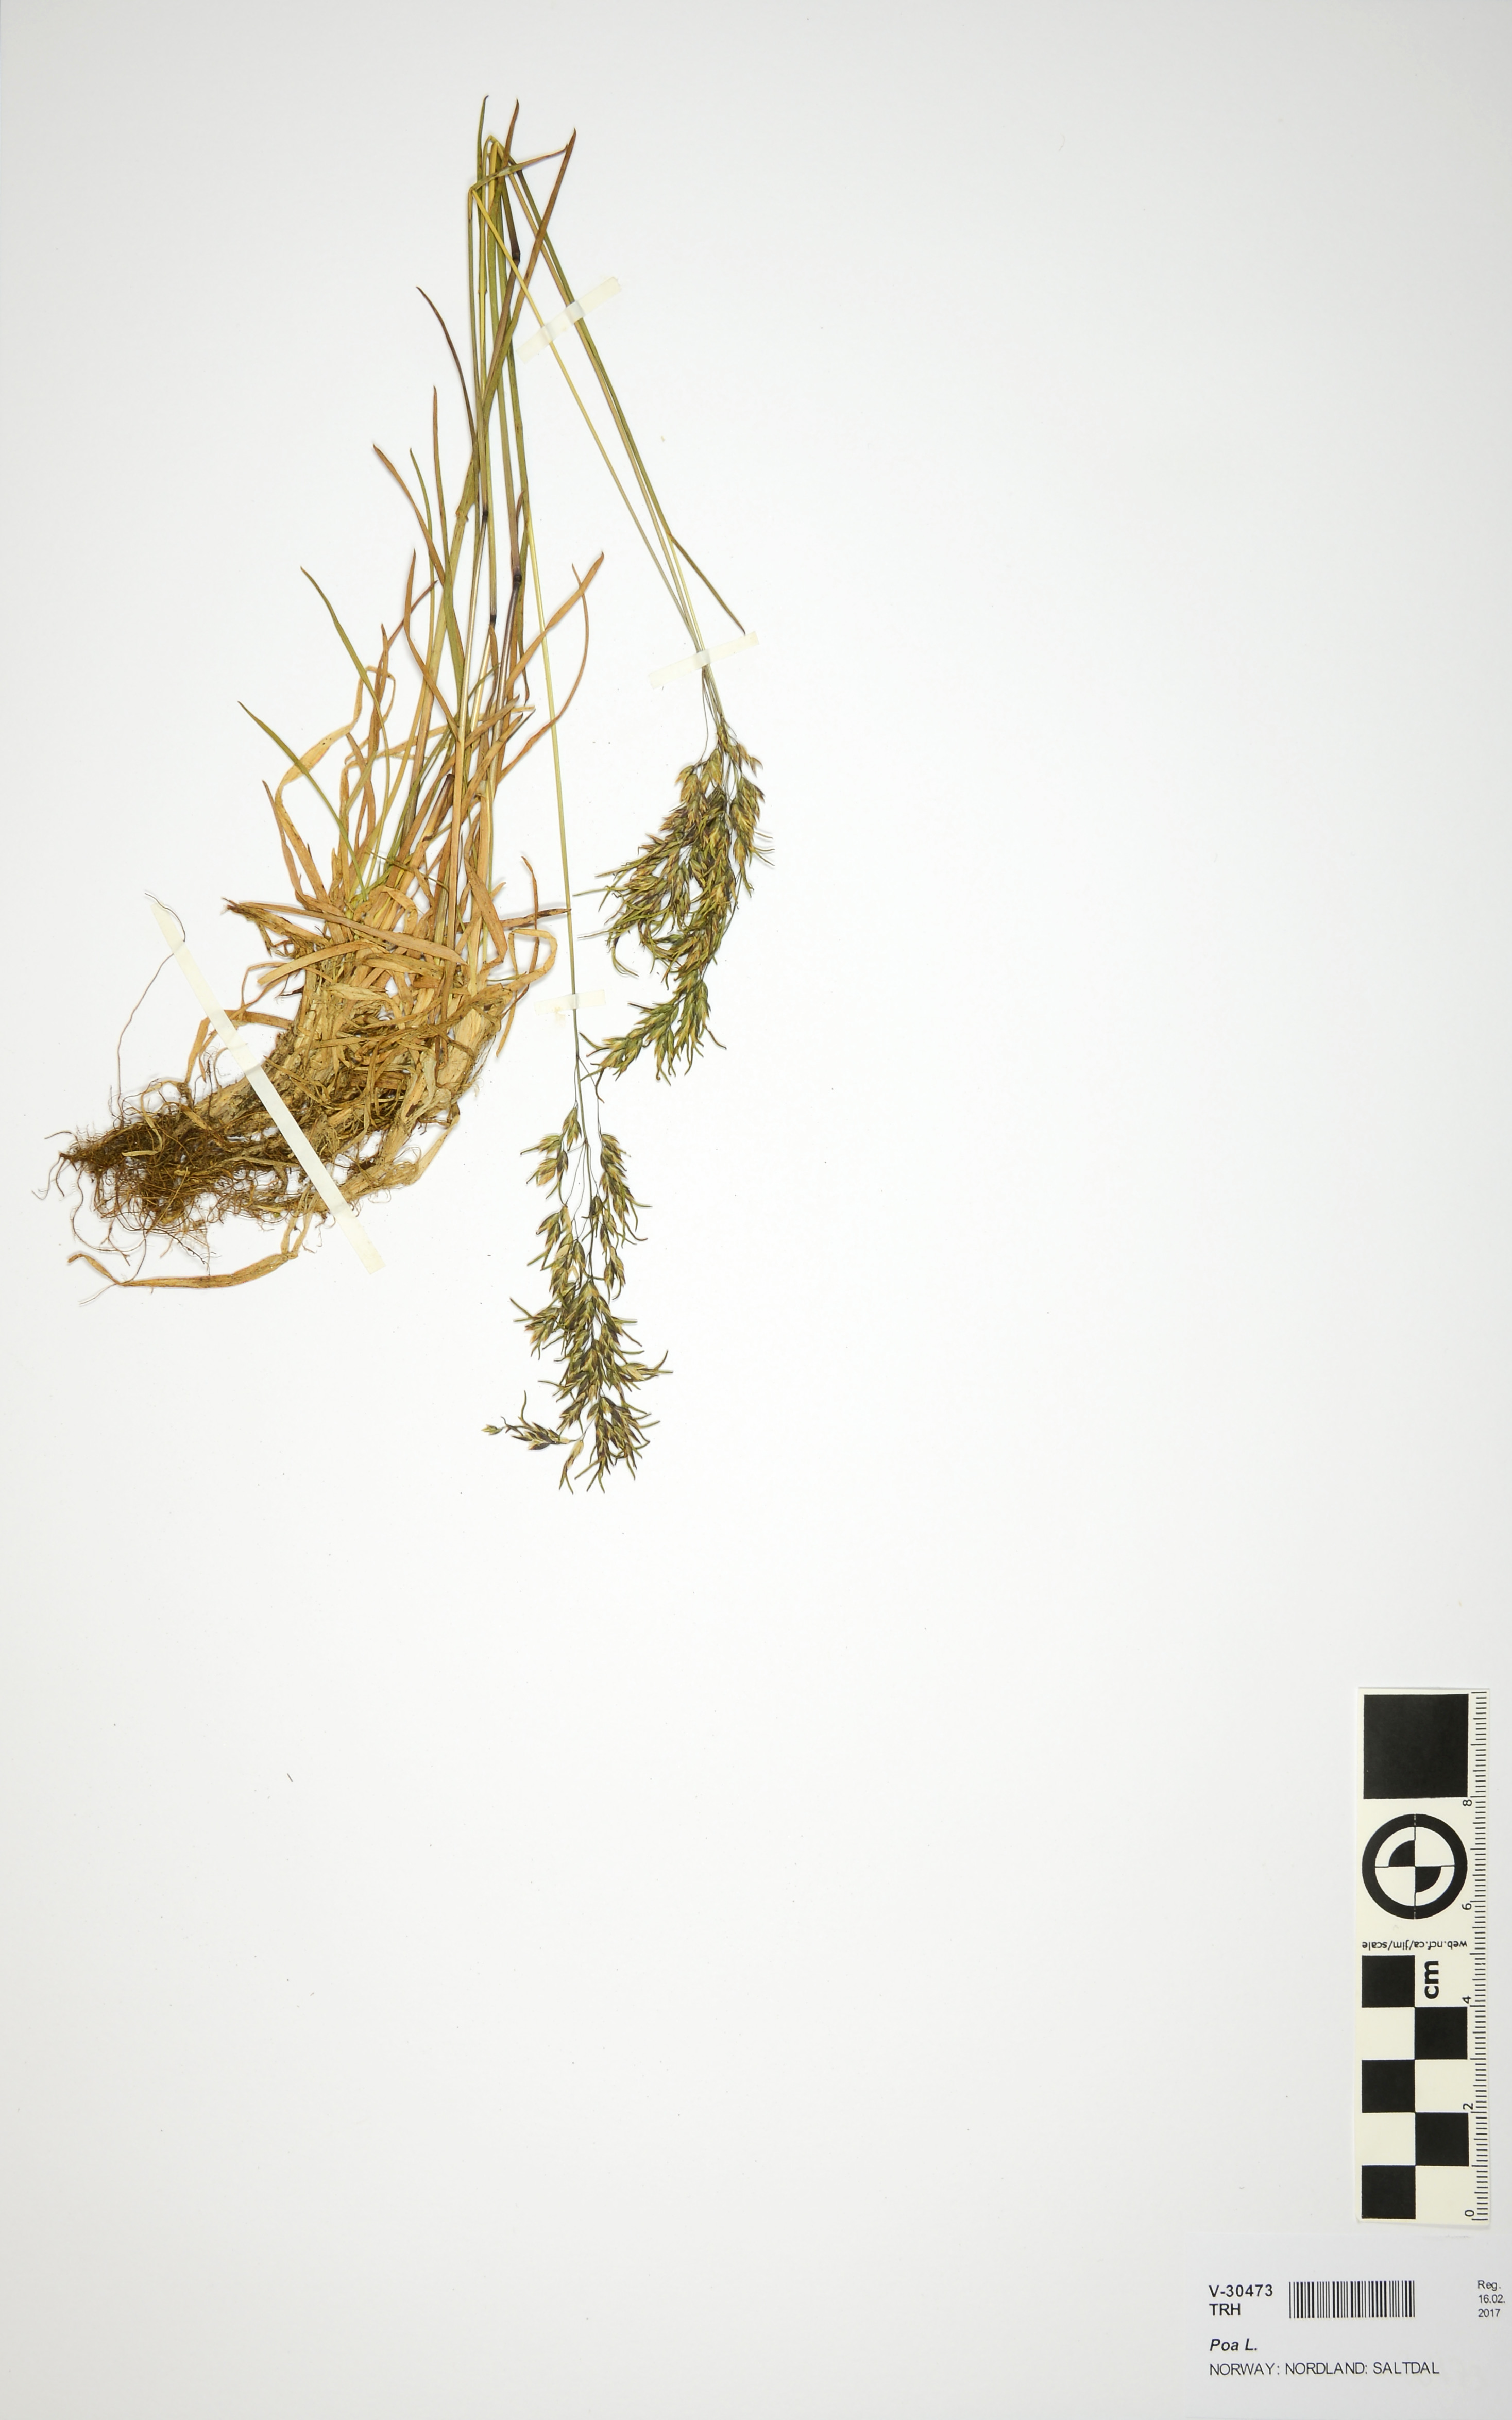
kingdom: Plantae
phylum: Tracheophyta
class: Liliopsida
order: Poales
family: Poaceae
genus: Poa
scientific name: Poa
